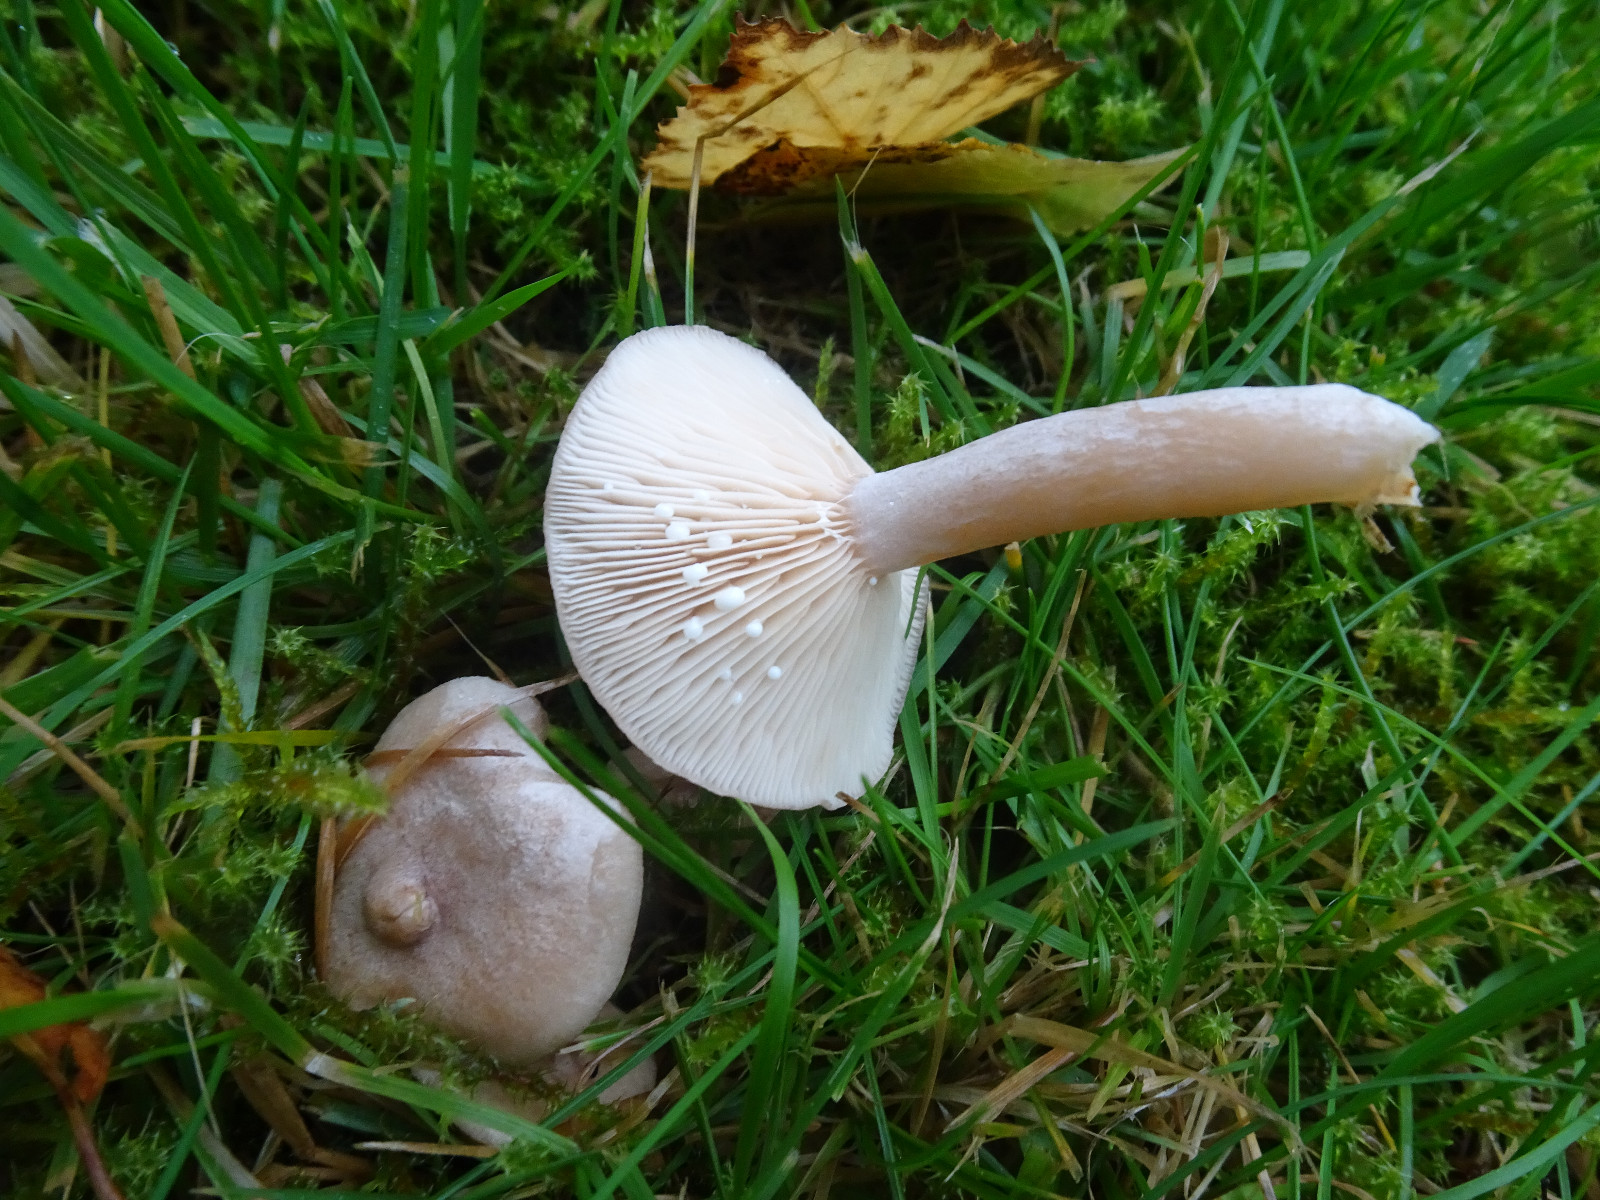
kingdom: Fungi
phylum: Basidiomycota
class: Agaricomycetes
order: Russulales
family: Russulaceae
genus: Lactarius
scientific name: Lactarius glyciosmus
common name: kokos-mælkehat
